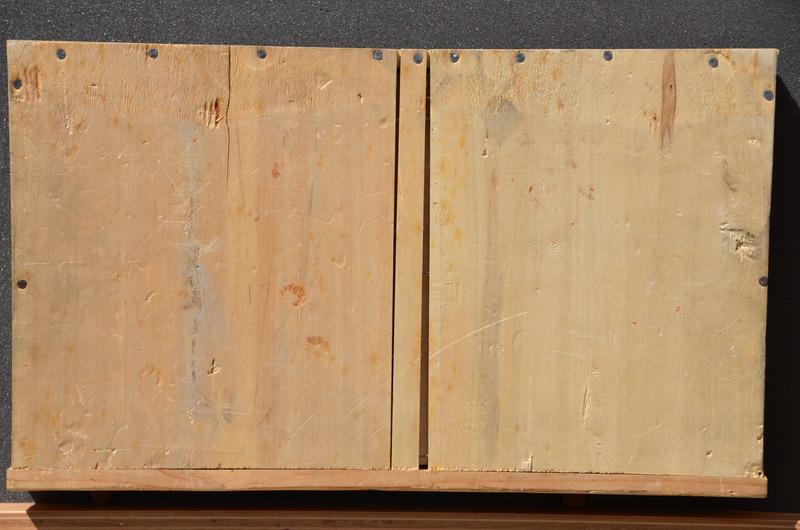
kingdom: Animalia
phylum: Chordata
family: Pycnodontidae
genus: Proscinetes
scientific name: Proscinetes bernardi
